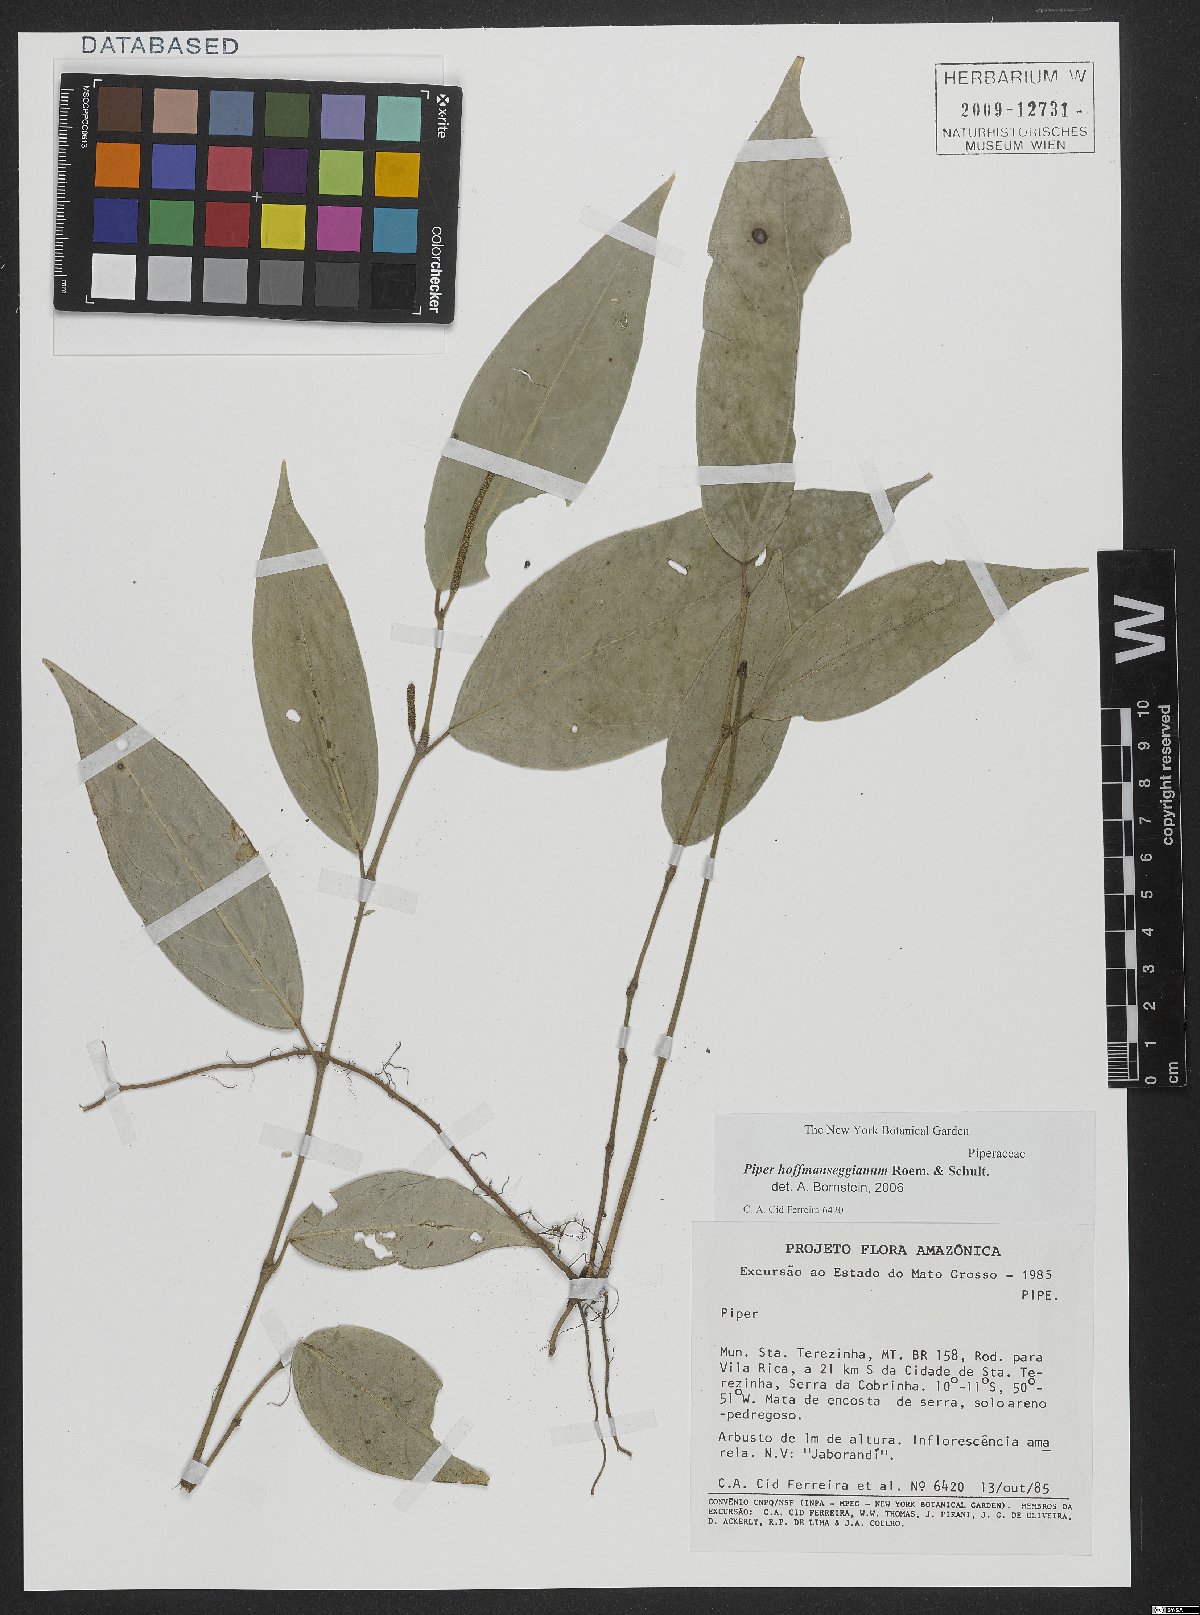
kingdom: Plantae
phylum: Tracheophyta
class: Magnoliopsida
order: Piperales
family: Piperaceae
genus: Piper
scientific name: Piper hoffmannseggianum
